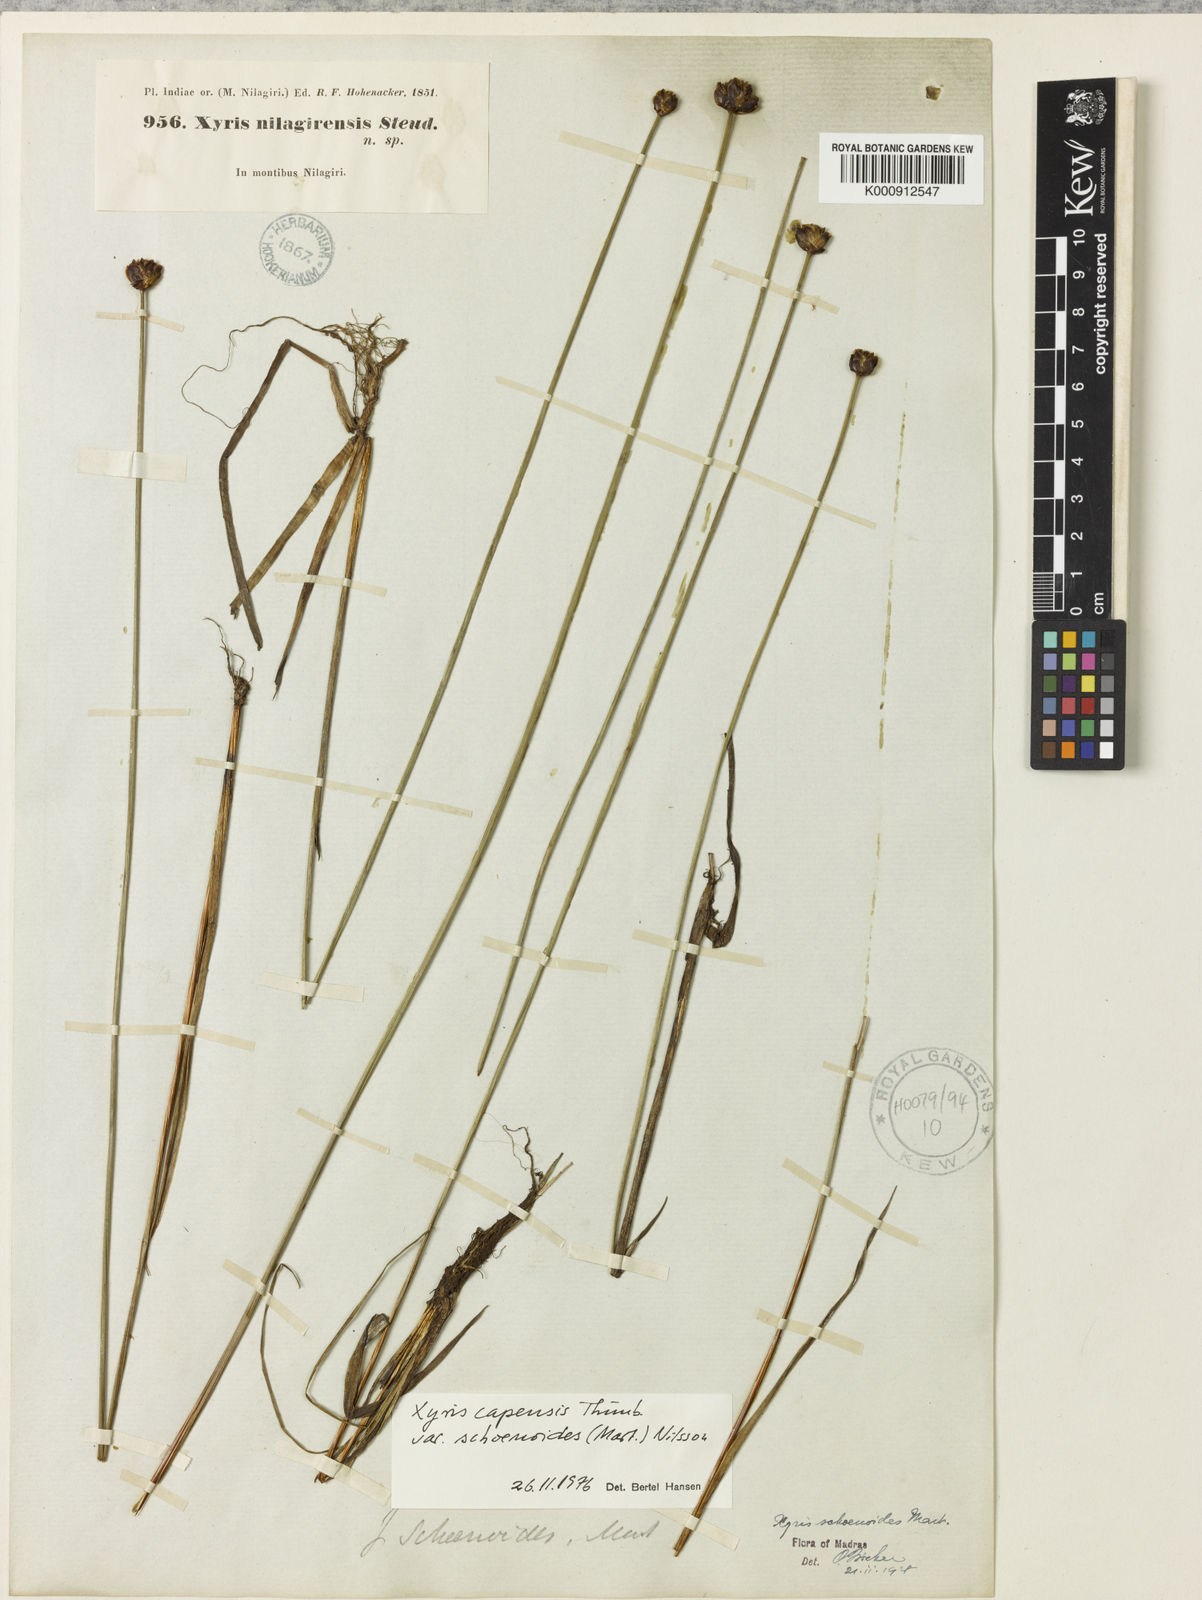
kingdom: Plantae
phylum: Tracheophyta
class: Liliopsida
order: Poales
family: Xyridaceae
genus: Xyris
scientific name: Xyris congensis
